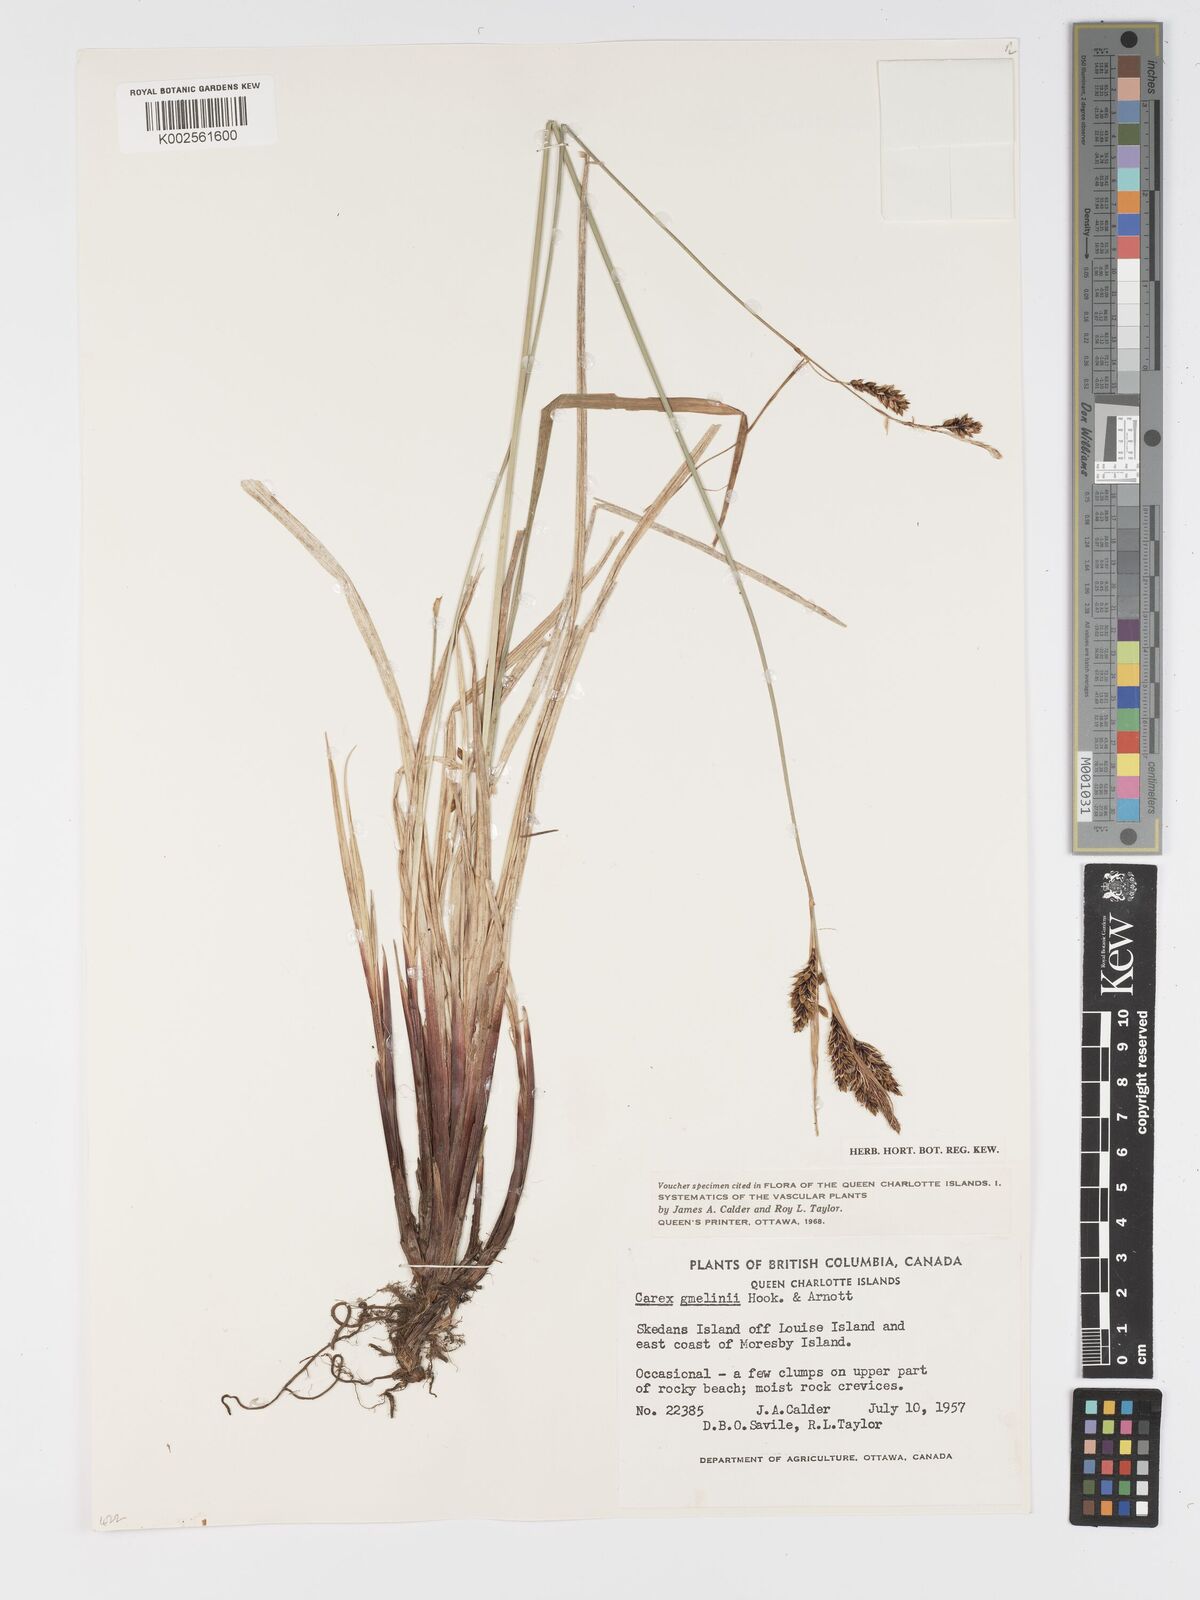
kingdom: Plantae
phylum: Tracheophyta
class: Liliopsida
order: Poales
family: Cyperaceae
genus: Carex
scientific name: Carex gmelinii
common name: Gmelin's sedge
